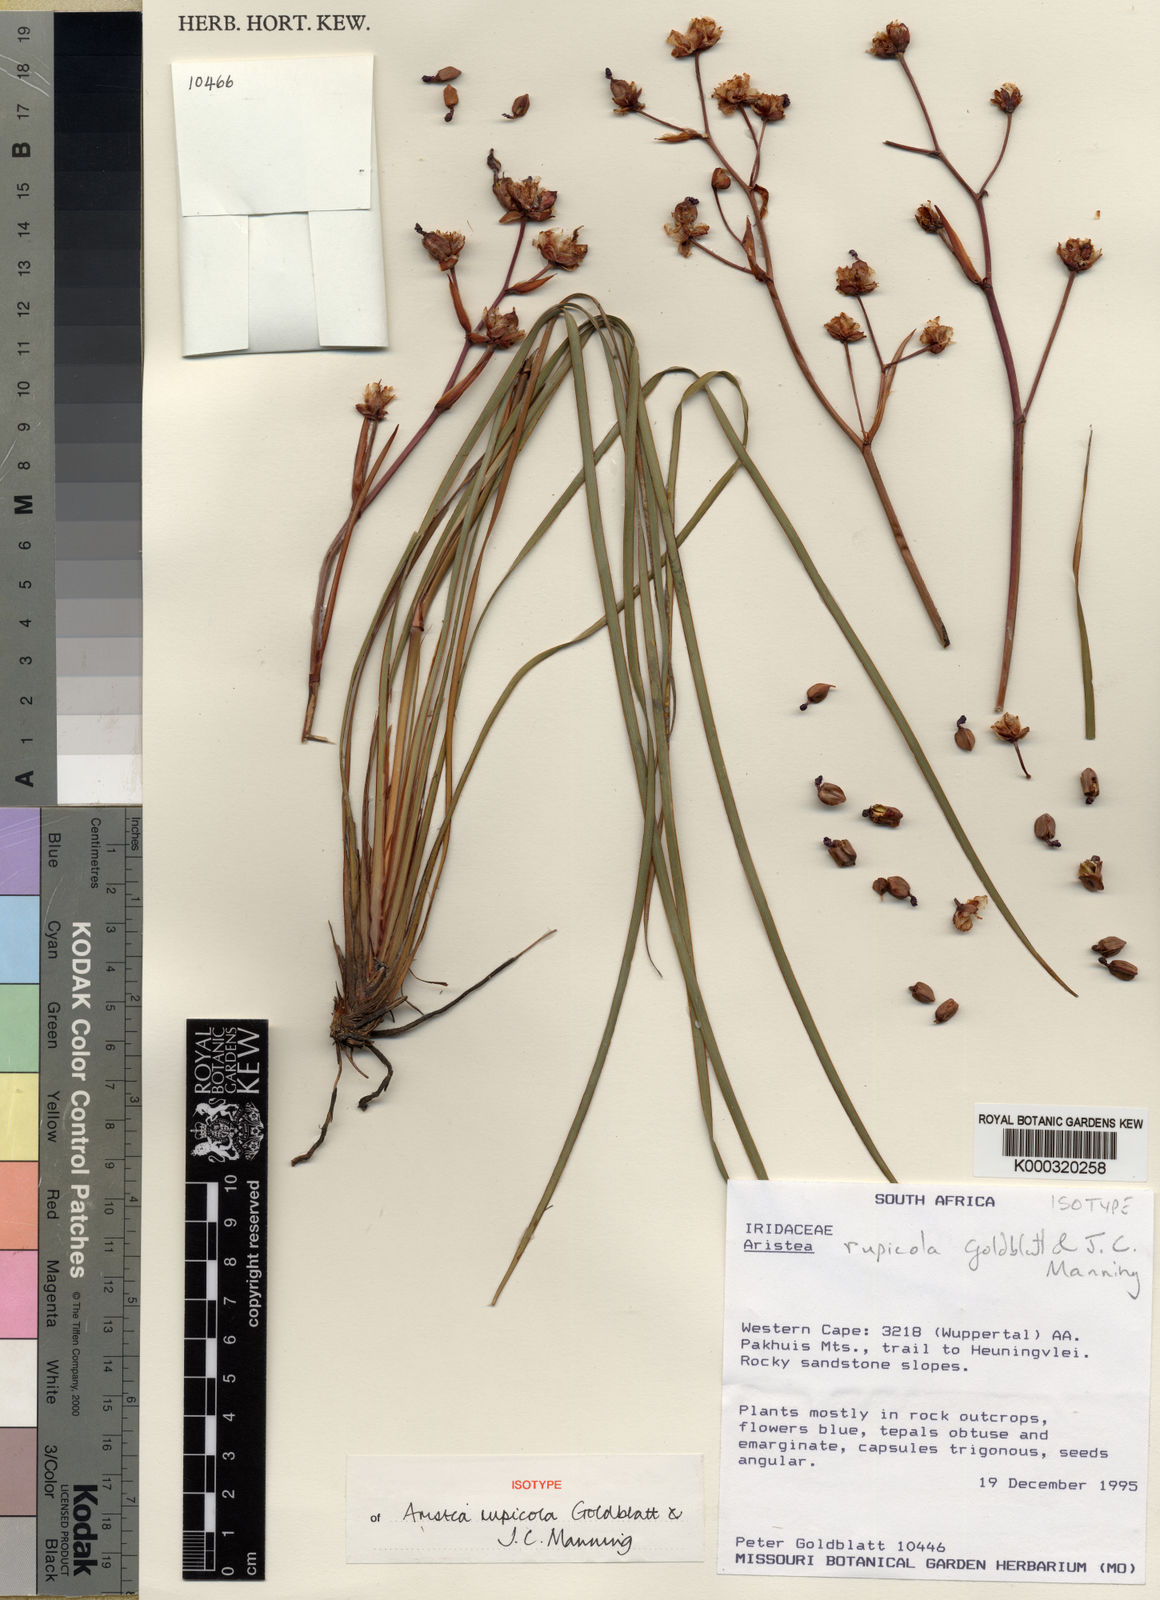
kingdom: Plantae
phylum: Tracheophyta
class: Liliopsida
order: Asparagales
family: Iridaceae
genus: Aristea
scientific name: Aristea rupicola
